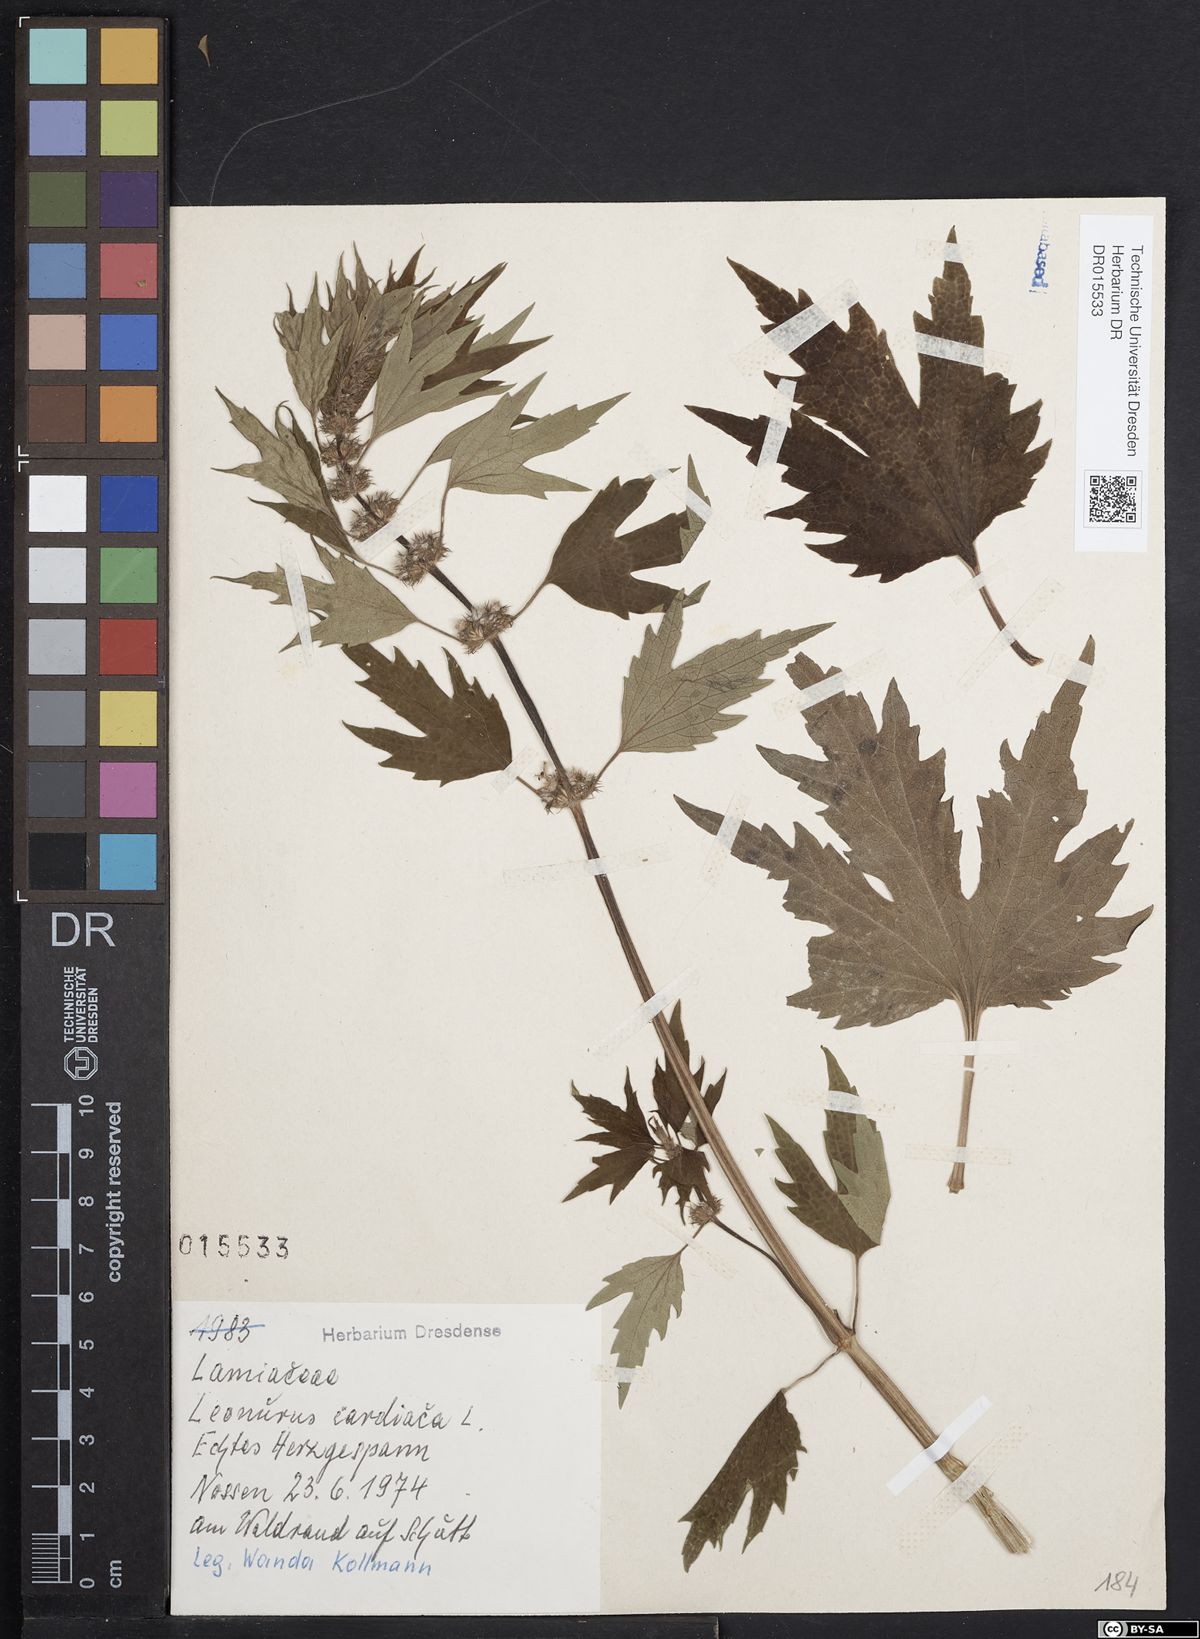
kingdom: Plantae
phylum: Tracheophyta
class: Magnoliopsida
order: Lamiales
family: Lamiaceae
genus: Leonurus
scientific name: Leonurus cardiaca
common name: Motherwort
